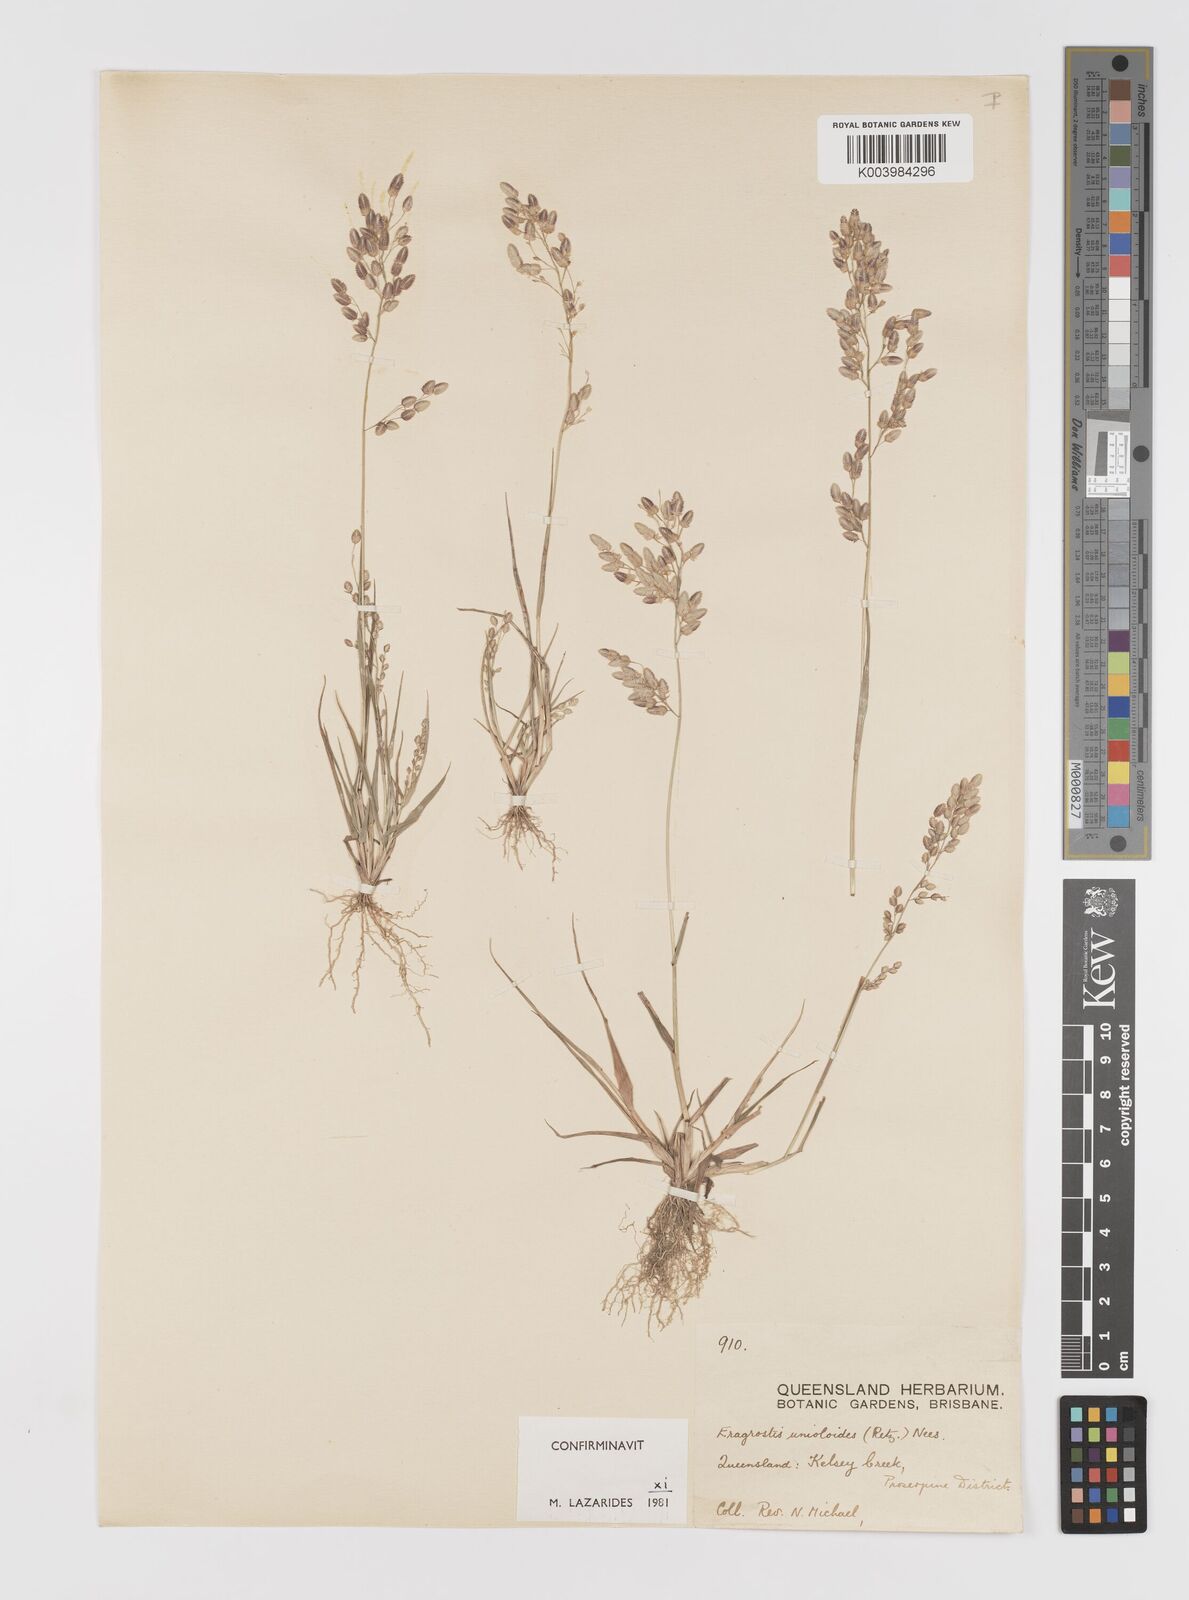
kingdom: Plantae
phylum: Tracheophyta
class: Liliopsida
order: Poales
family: Poaceae
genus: Eragrostis
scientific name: Eragrostis unioloides
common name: Chinese lovegrass
